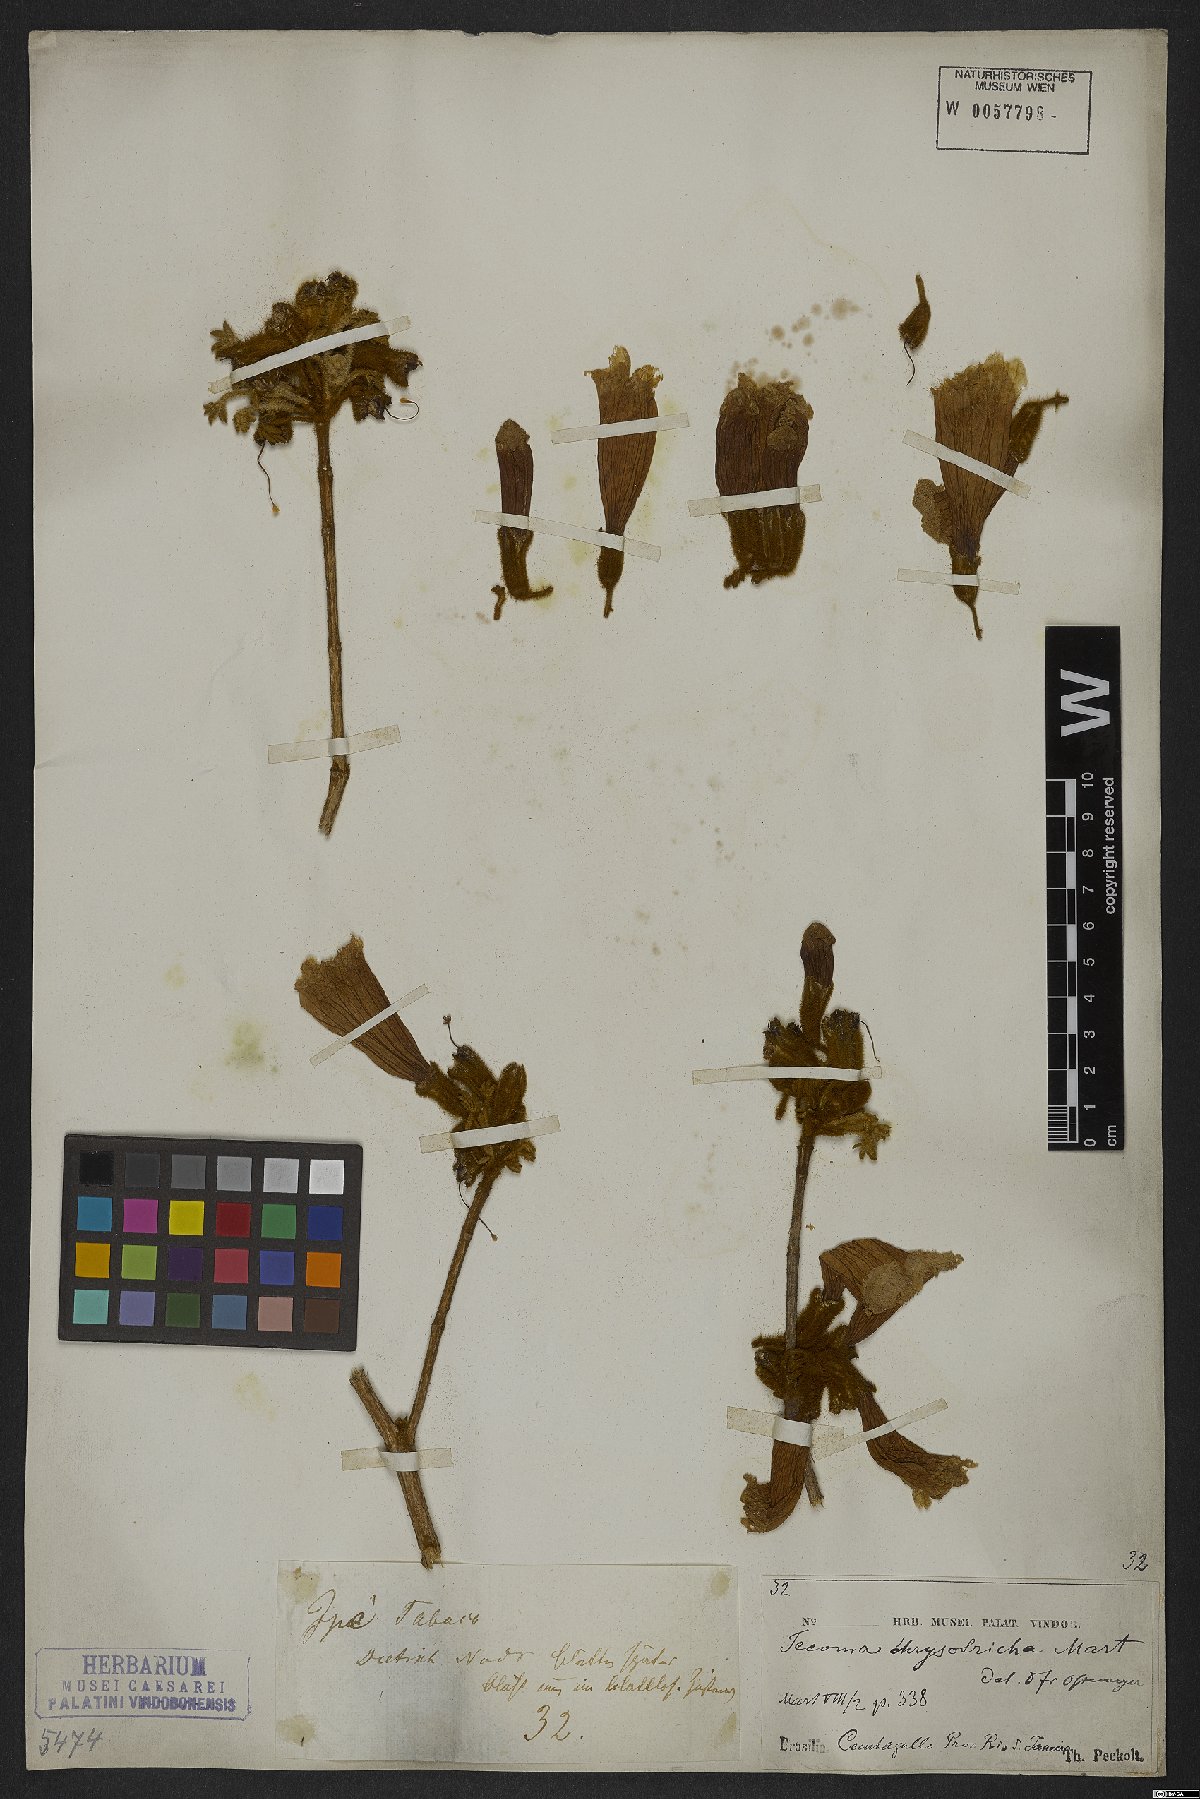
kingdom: Plantae
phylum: Tracheophyta
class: Magnoliopsida
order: Lamiales
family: Bignoniaceae
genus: Handroanthus
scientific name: Handroanthus chrysotrichus
